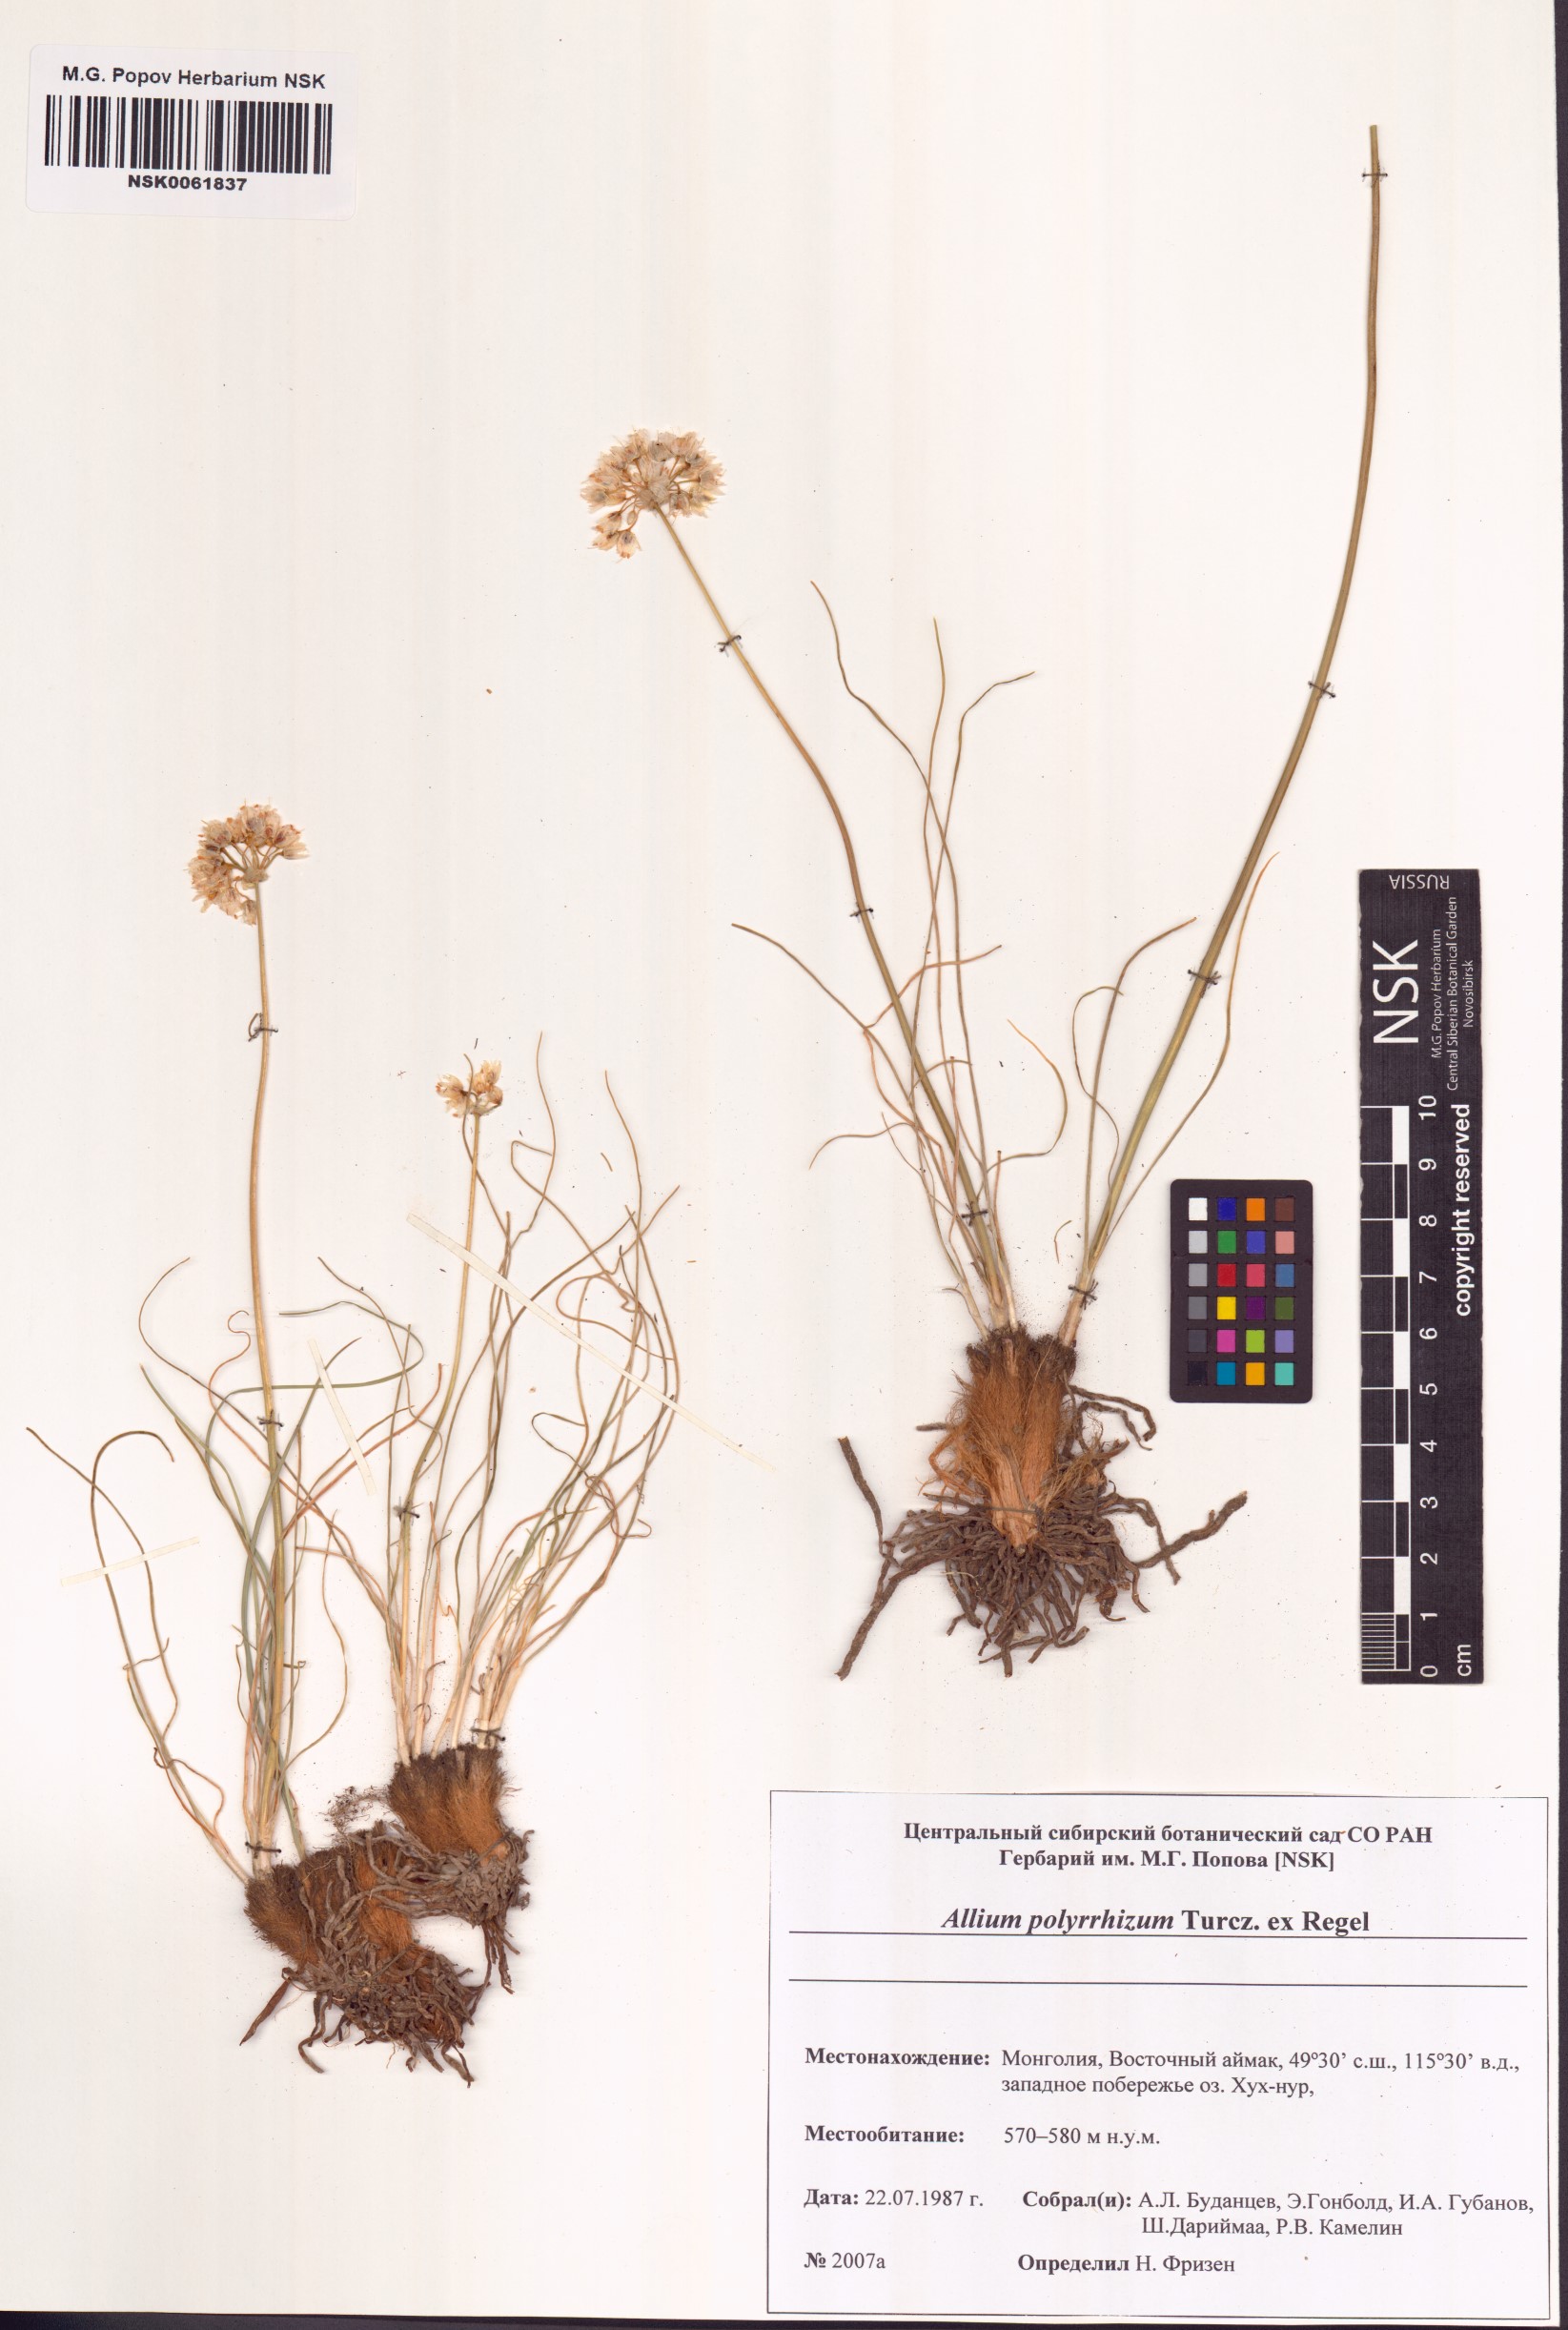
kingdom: Plantae
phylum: Tracheophyta
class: Liliopsida
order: Asparagales
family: Amaryllidaceae
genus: Allium
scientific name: Allium polyrhizum
